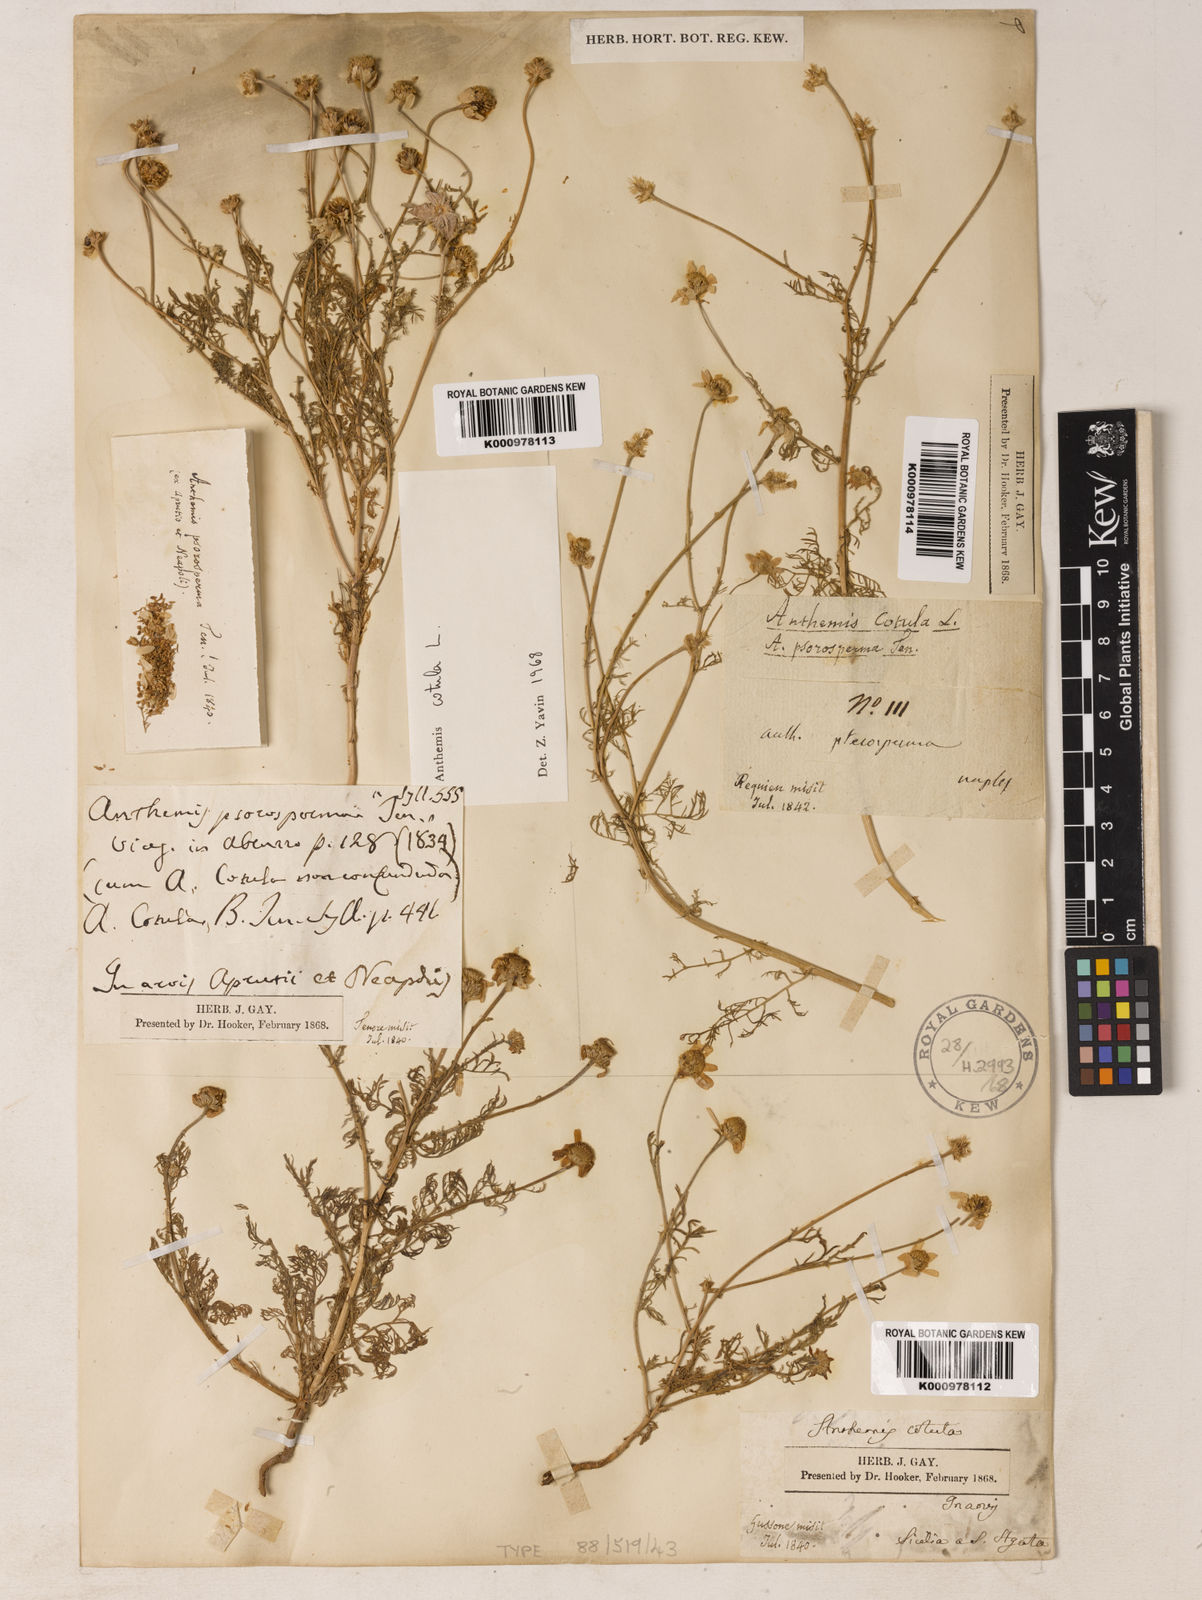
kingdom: Plantae
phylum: Tracheophyta
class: Magnoliopsida
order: Asterales
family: Asteraceae
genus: Anthemis
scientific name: Anthemis cotula
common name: Stinking chamomile
